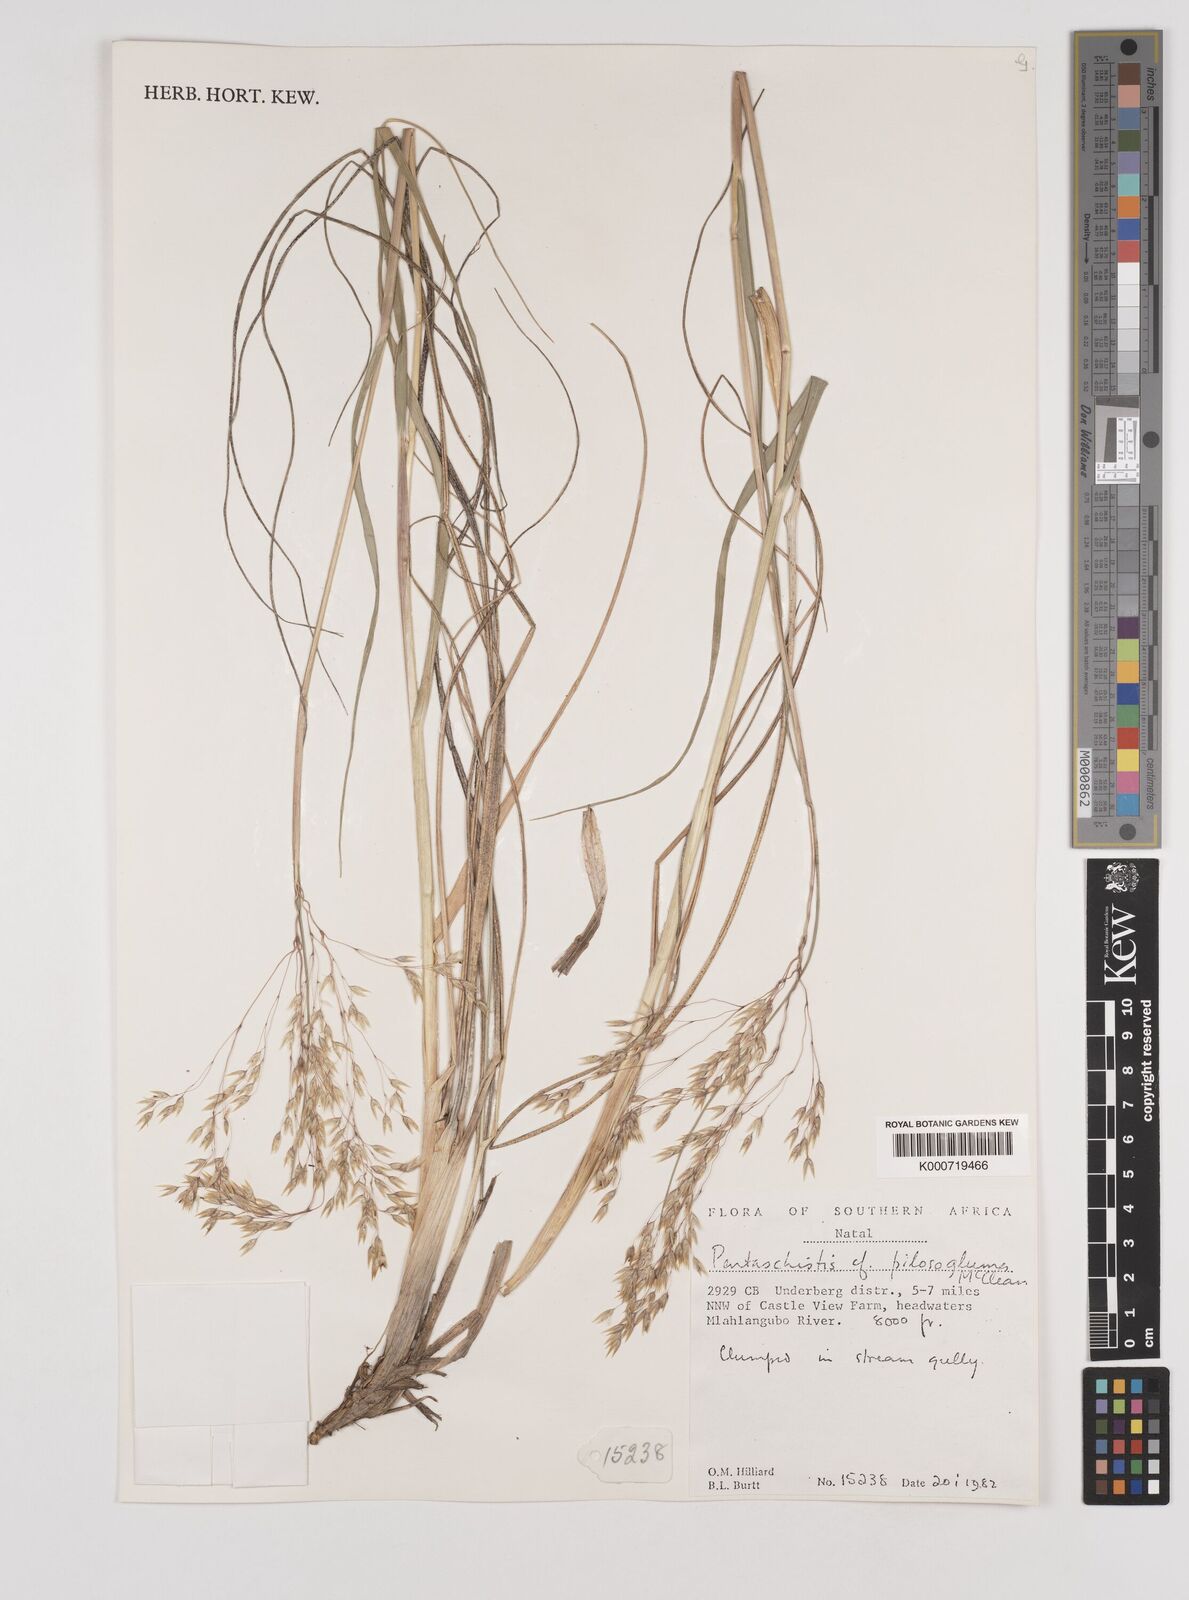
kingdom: Plantae
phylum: Tracheophyta
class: Liliopsida
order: Poales
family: Poaceae
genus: Pentameris
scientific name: Pentameris aurea
